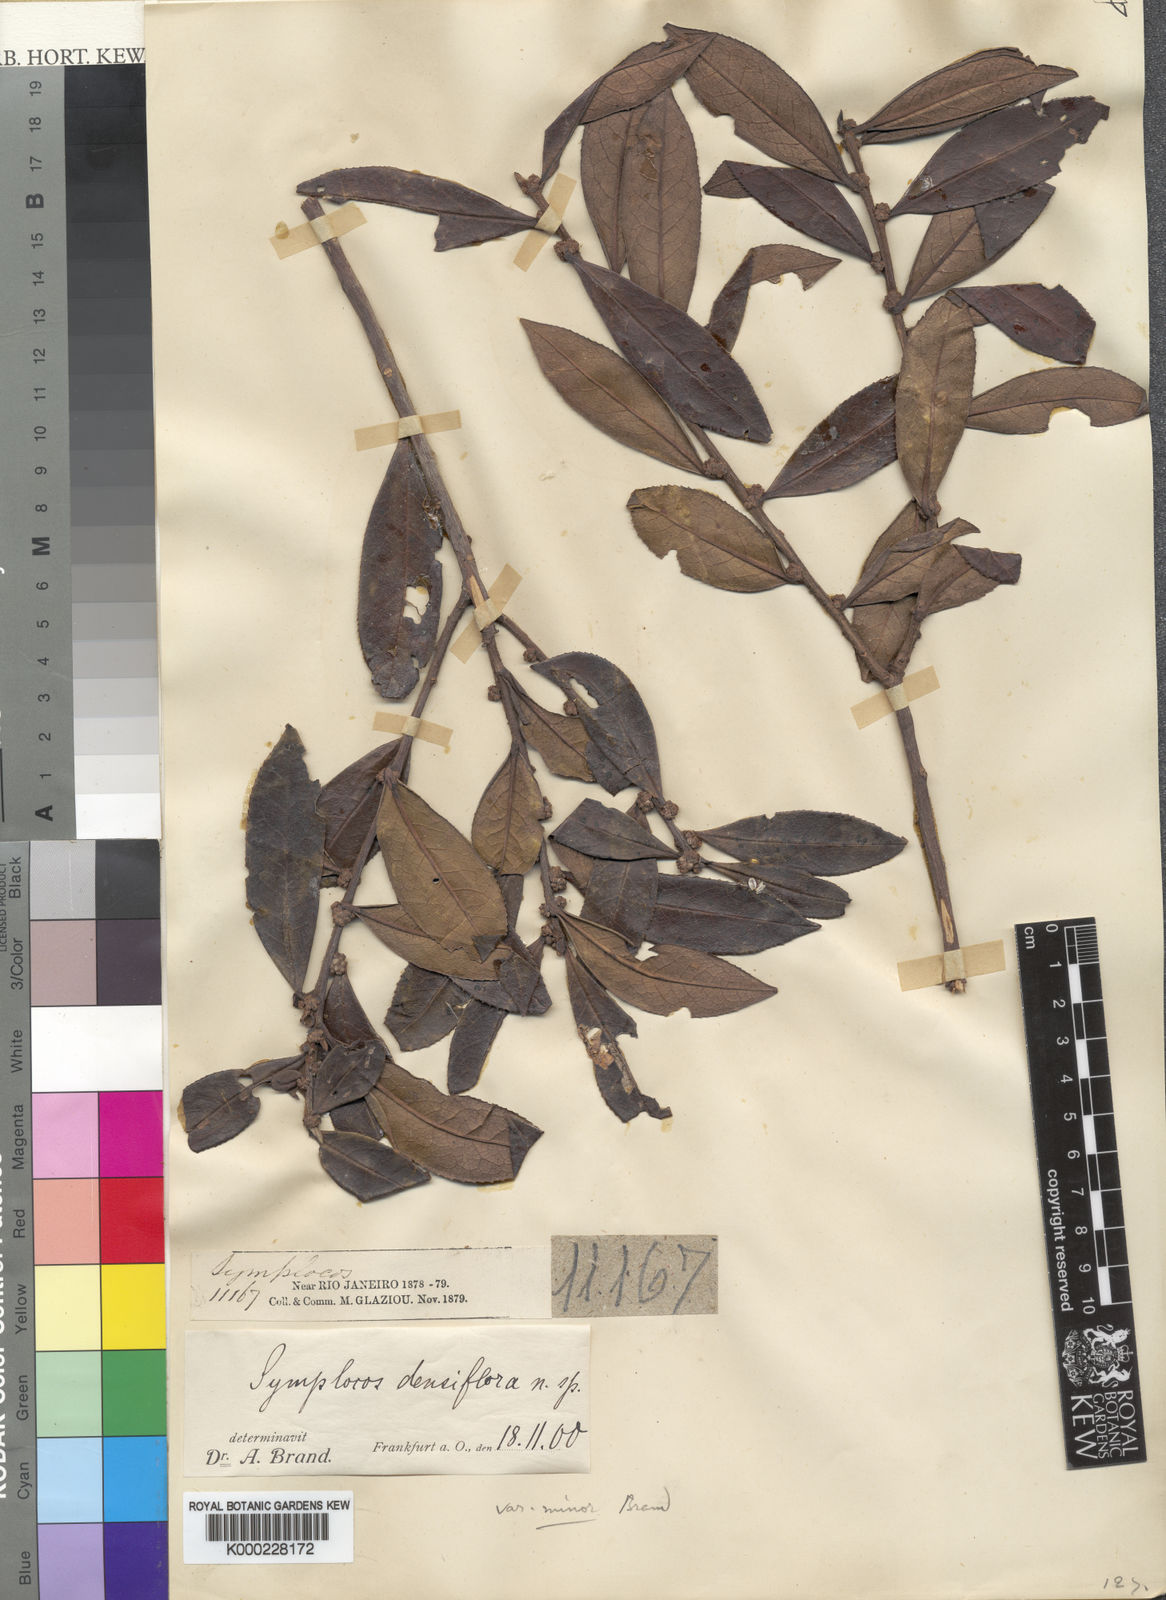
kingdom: Plantae
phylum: Tracheophyta
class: Magnoliopsida
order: Ericales
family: Symplocaceae
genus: Symplocos
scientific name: Symplocos falcata
